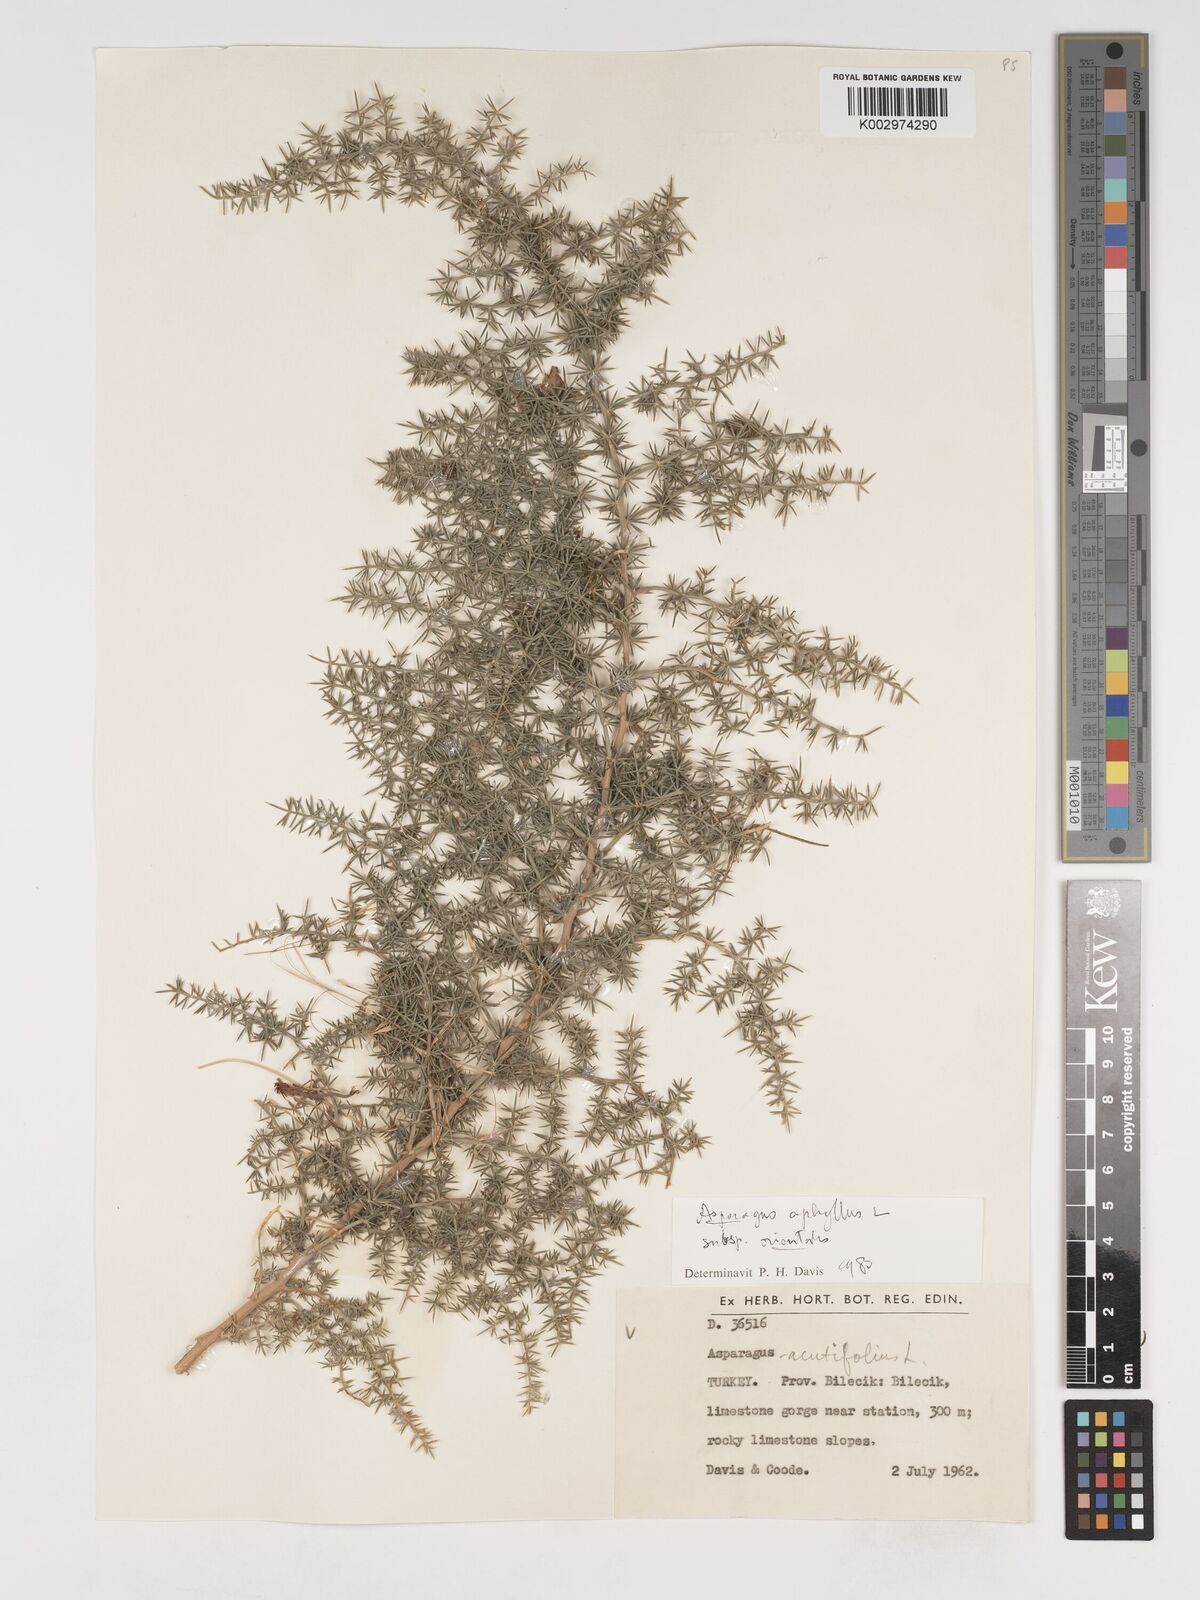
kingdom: Plantae
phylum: Tracheophyta
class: Liliopsida
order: Asparagales
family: Asparagaceae
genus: Asparagus
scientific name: Asparagus aphyllus
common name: Mediterranean asparagus
